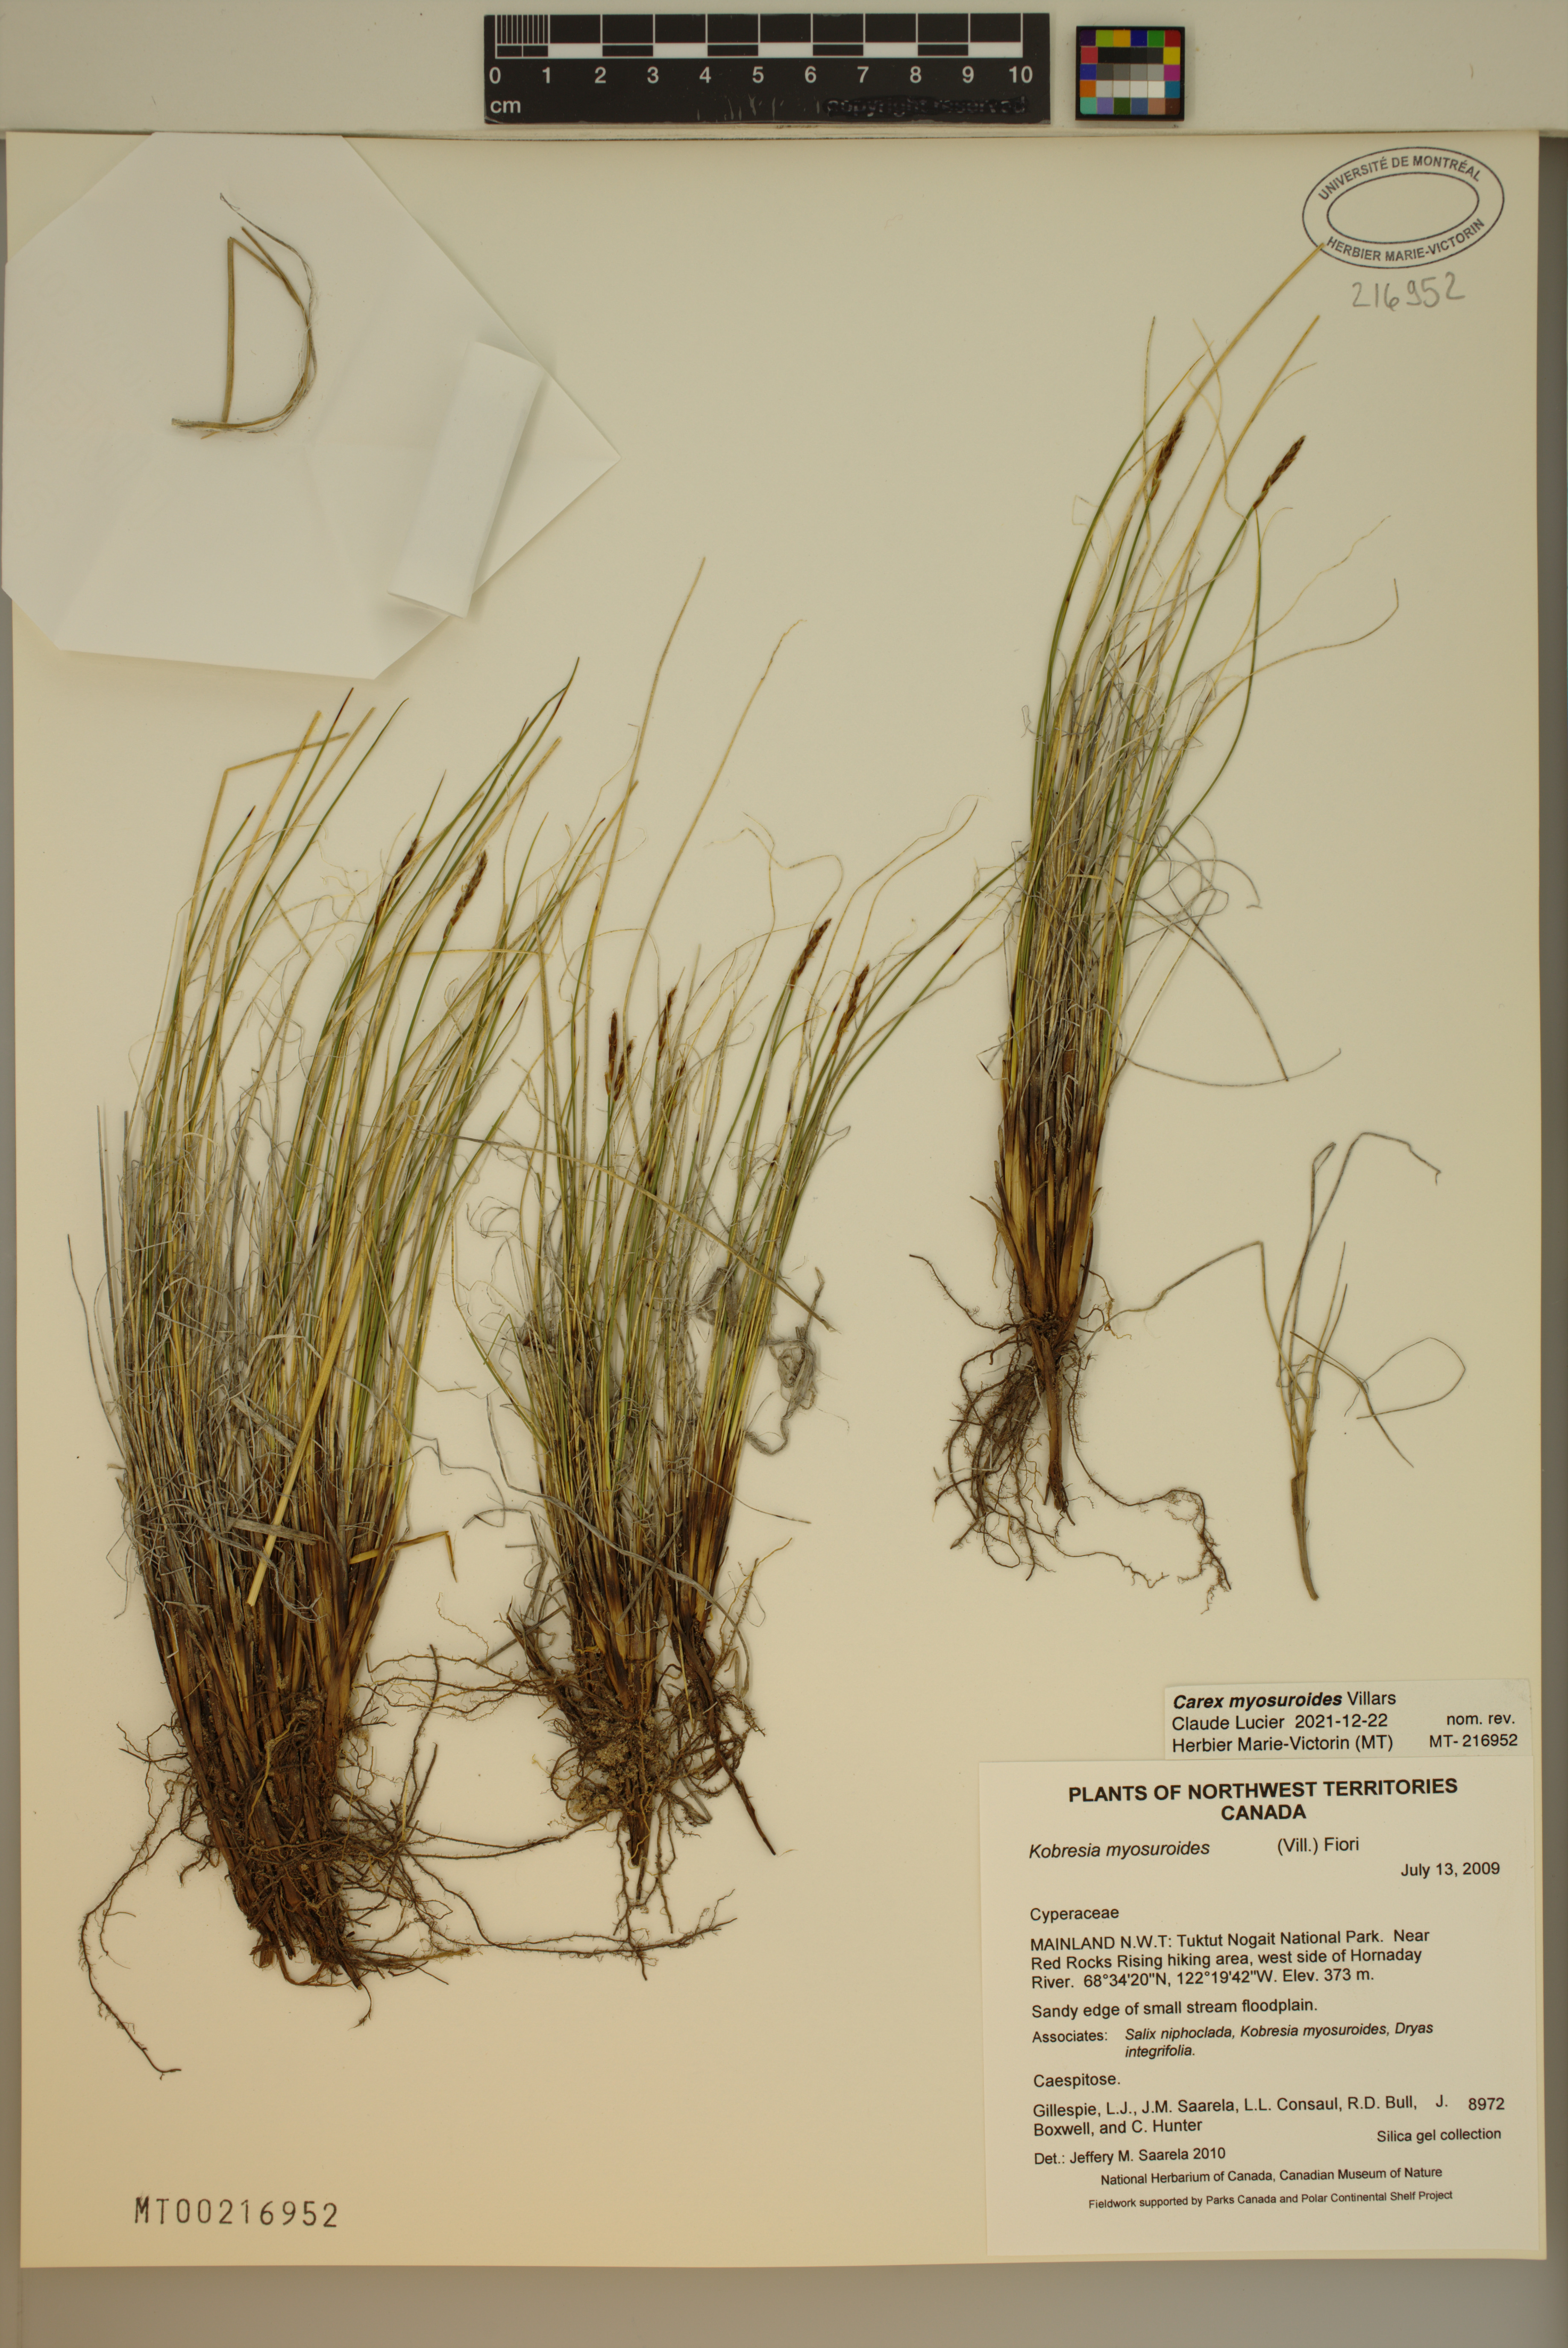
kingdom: Plantae
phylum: Tracheophyta
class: Liliopsida
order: Poales
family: Cyperaceae
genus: Carex
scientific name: Carex myosuroides
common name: Bellard's bog sedge
